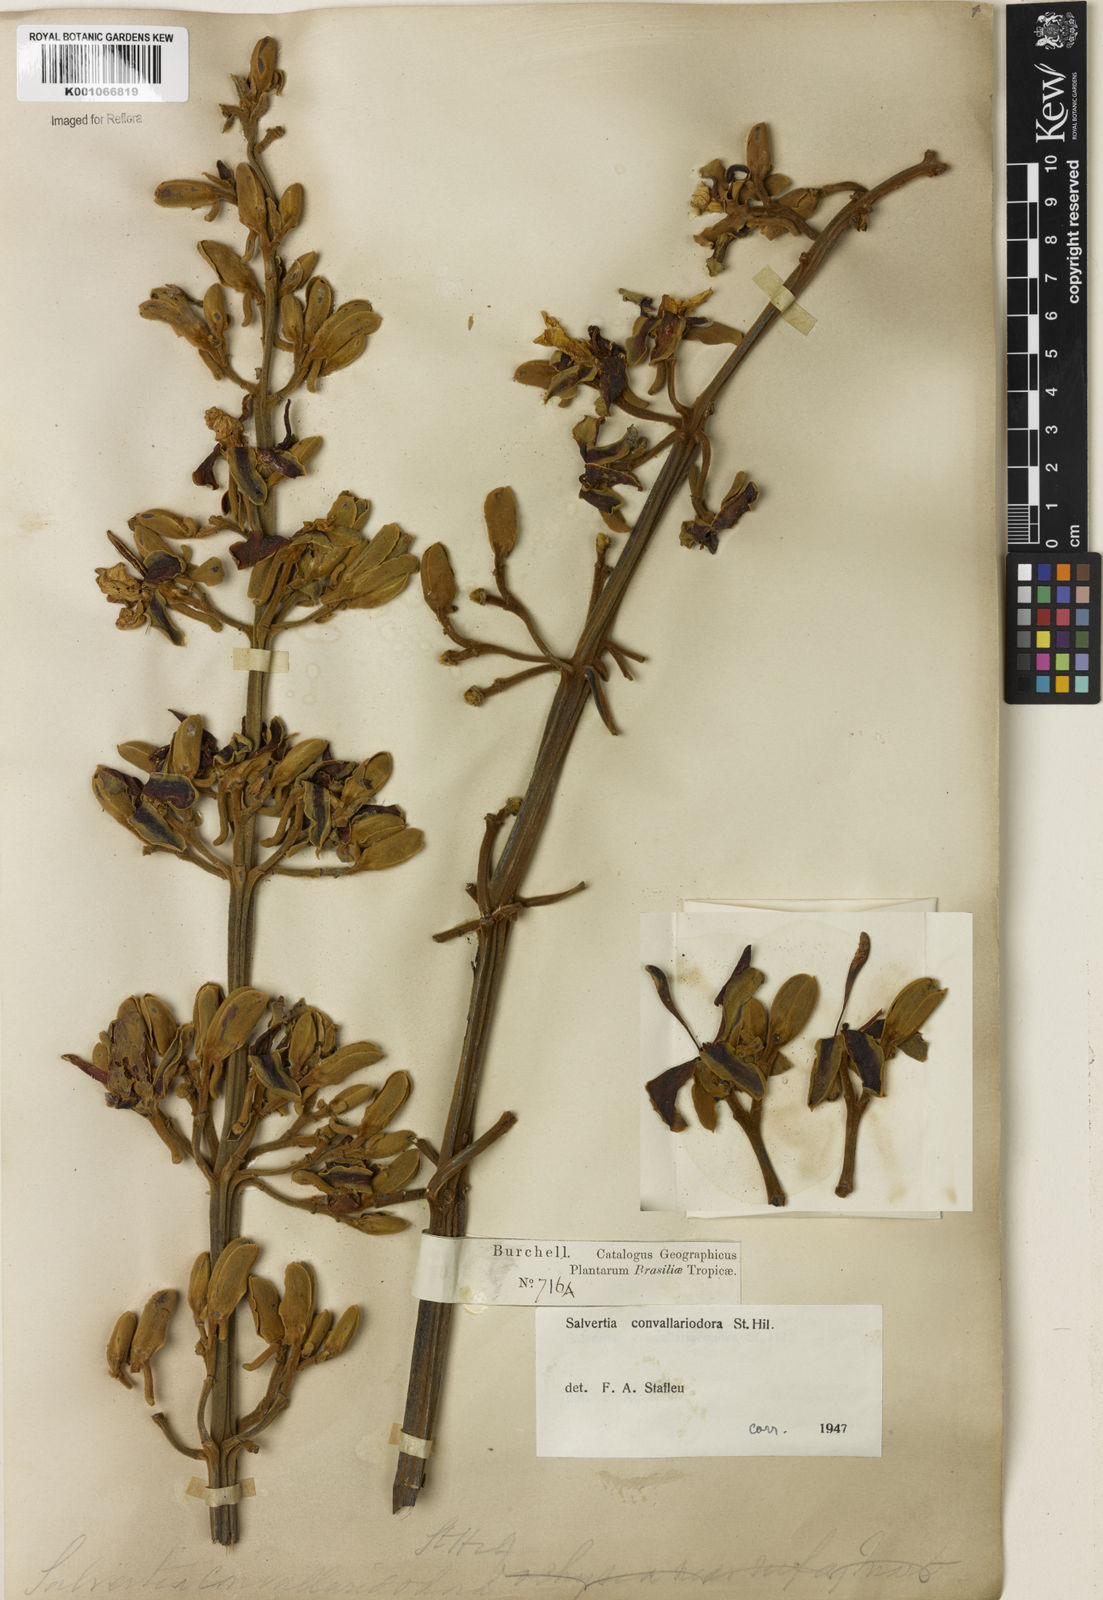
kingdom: Plantae
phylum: Tracheophyta
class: Magnoliopsida
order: Myrtales
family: Vochysiaceae
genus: Salvertia
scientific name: Salvertia convallariodora
